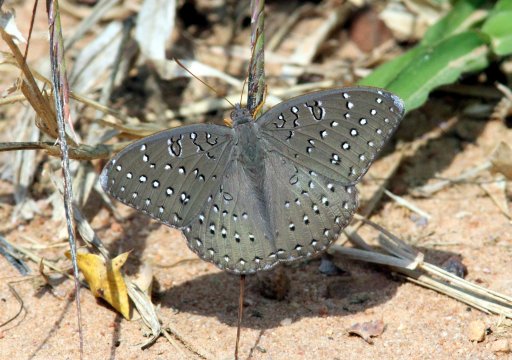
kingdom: Animalia
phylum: Arthropoda
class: Insecta
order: Lepidoptera
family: Nymphalidae
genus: Hamanumida
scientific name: Hamanumida daedalus
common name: Guineafowl
